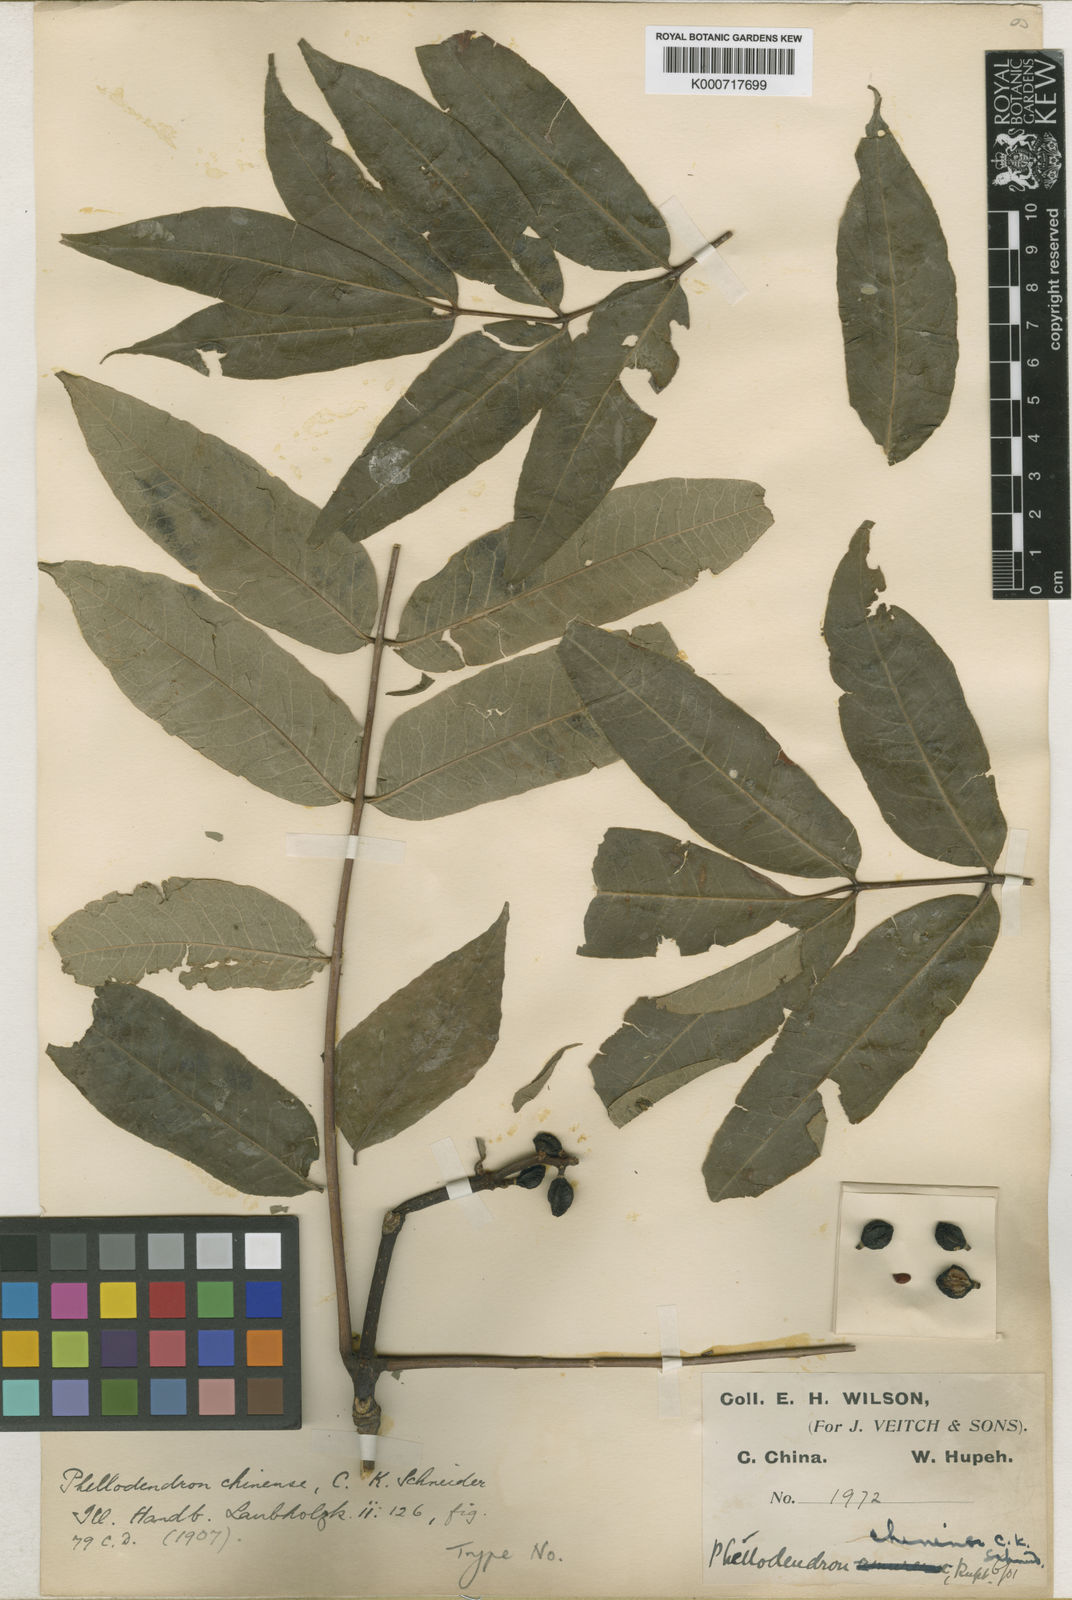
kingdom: Plantae
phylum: Tracheophyta
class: Magnoliopsida
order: Sapindales
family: Rutaceae
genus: Phellodendron
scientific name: Phellodendron chinense
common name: Phellodendron
